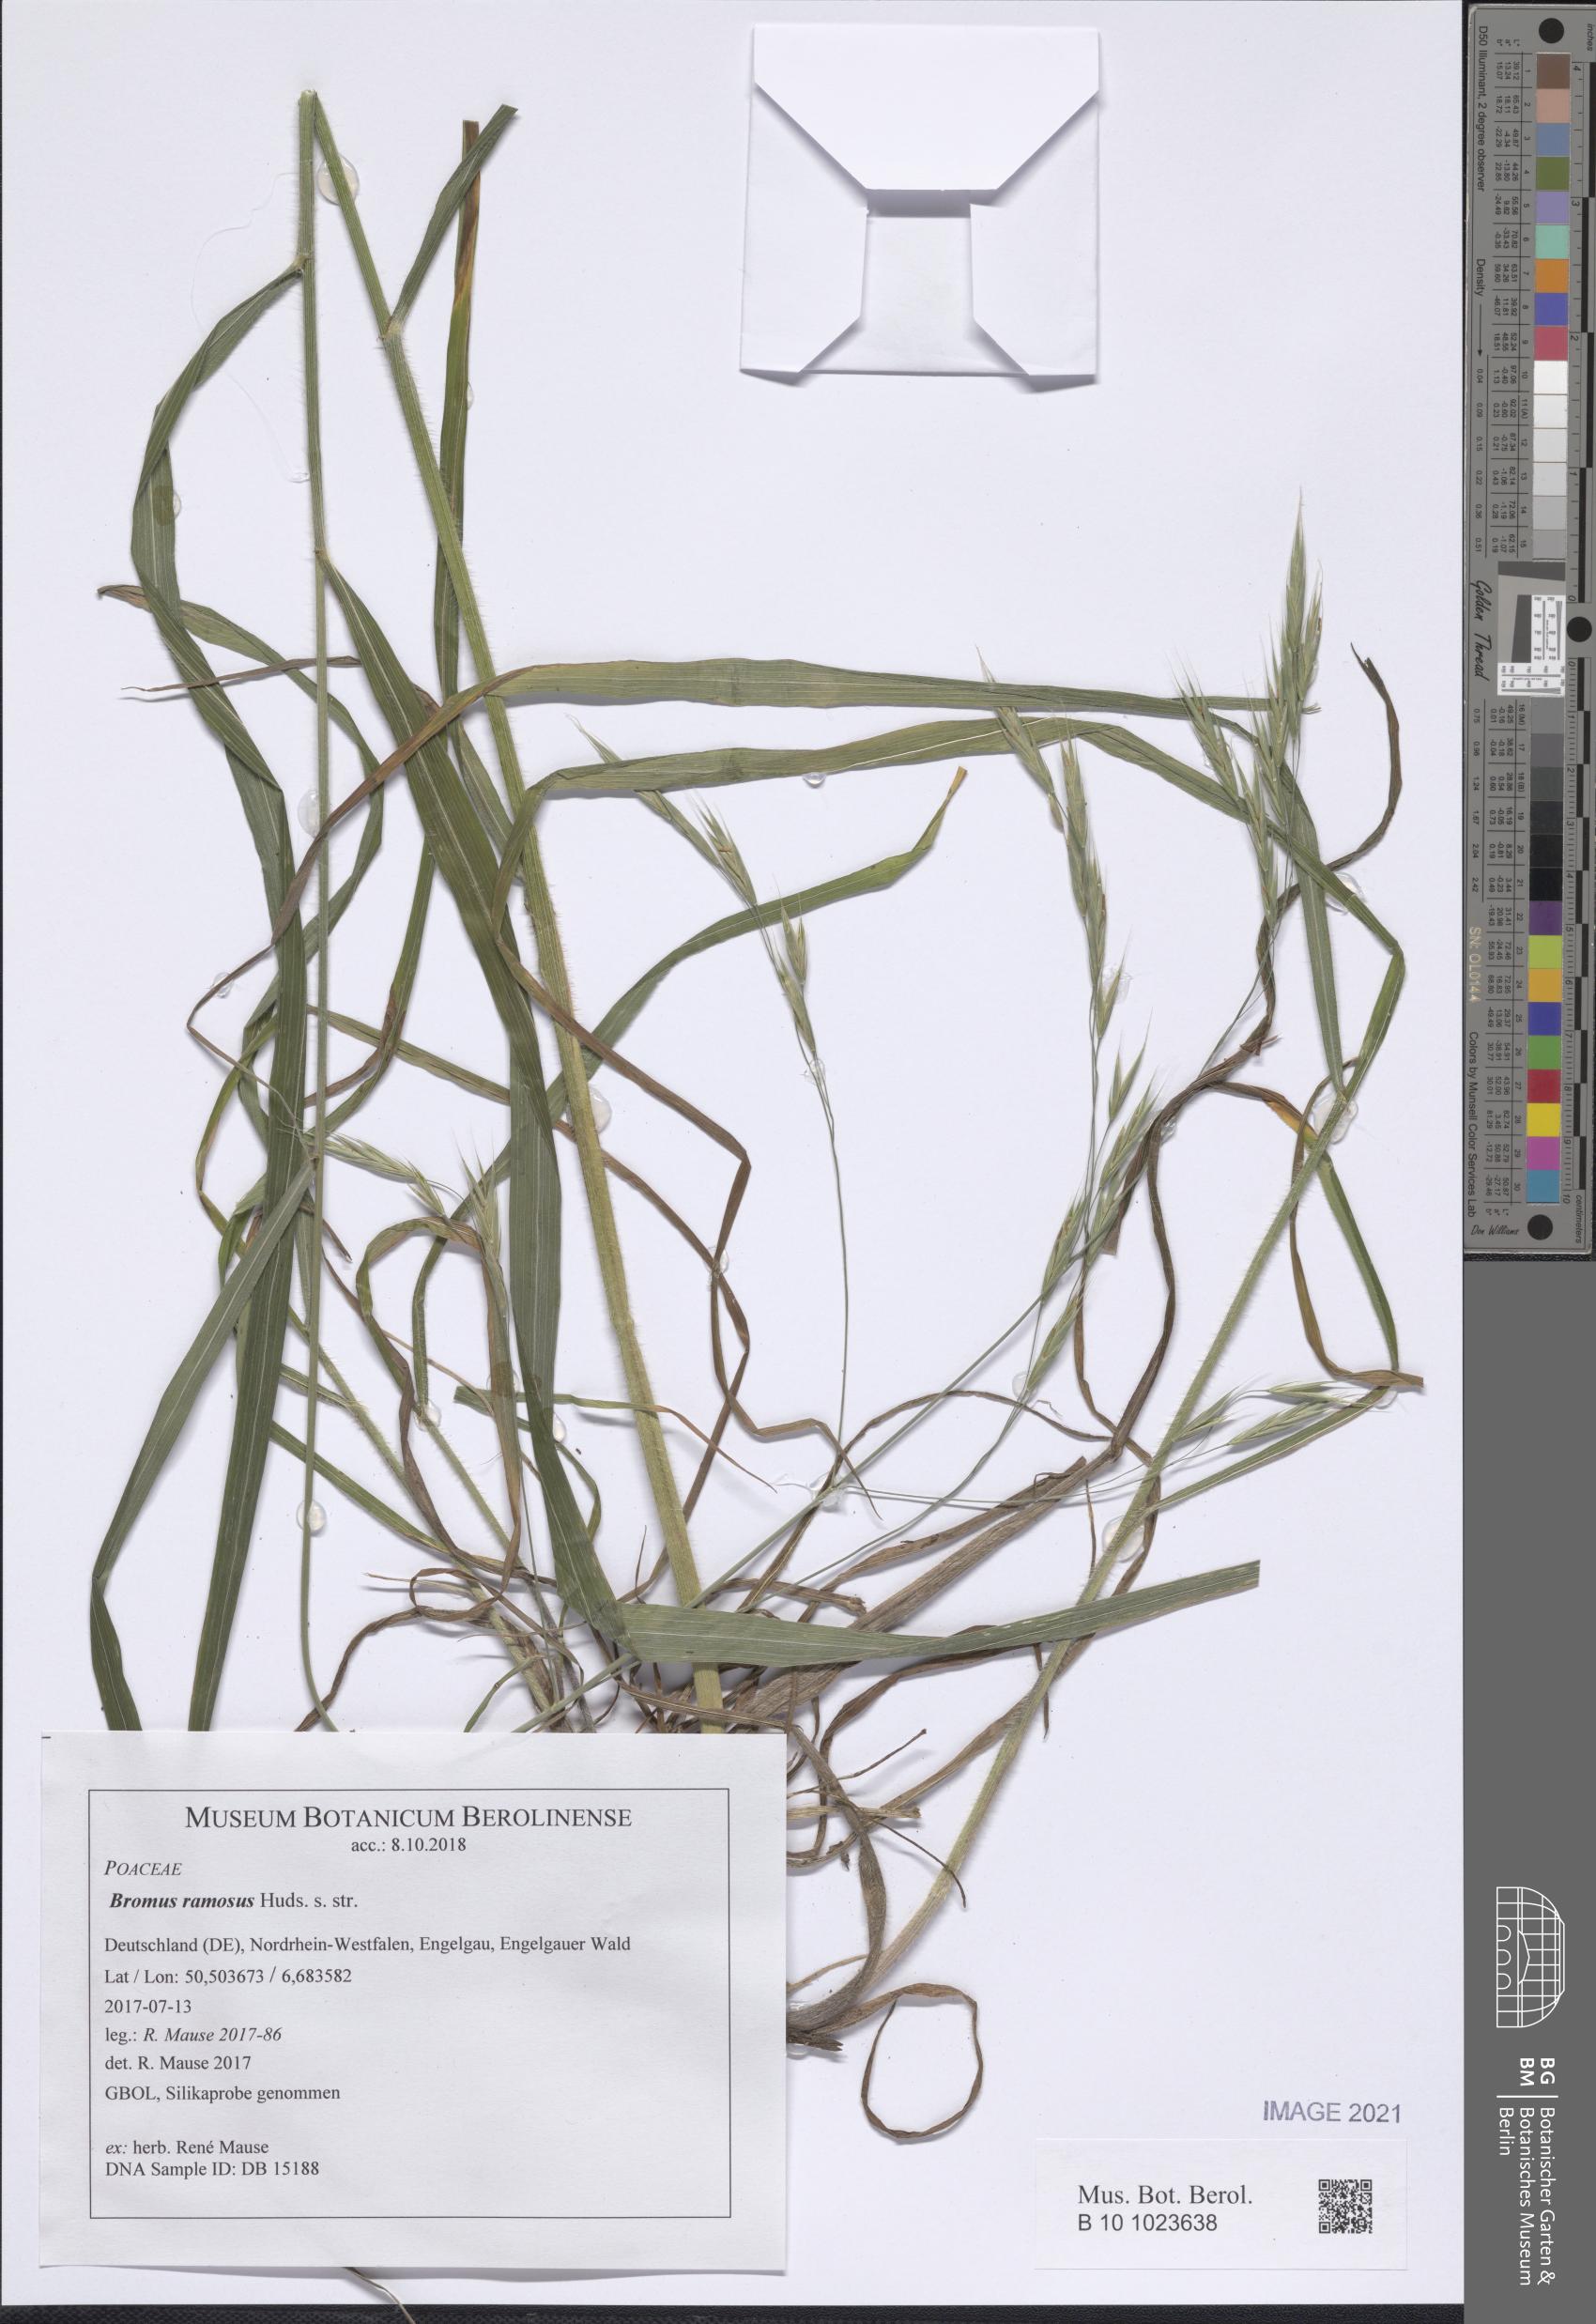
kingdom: Plantae
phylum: Tracheophyta
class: Liliopsida
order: Poales
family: Poaceae
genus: Bromus
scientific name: Bromus ramosus
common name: Hairy brome
